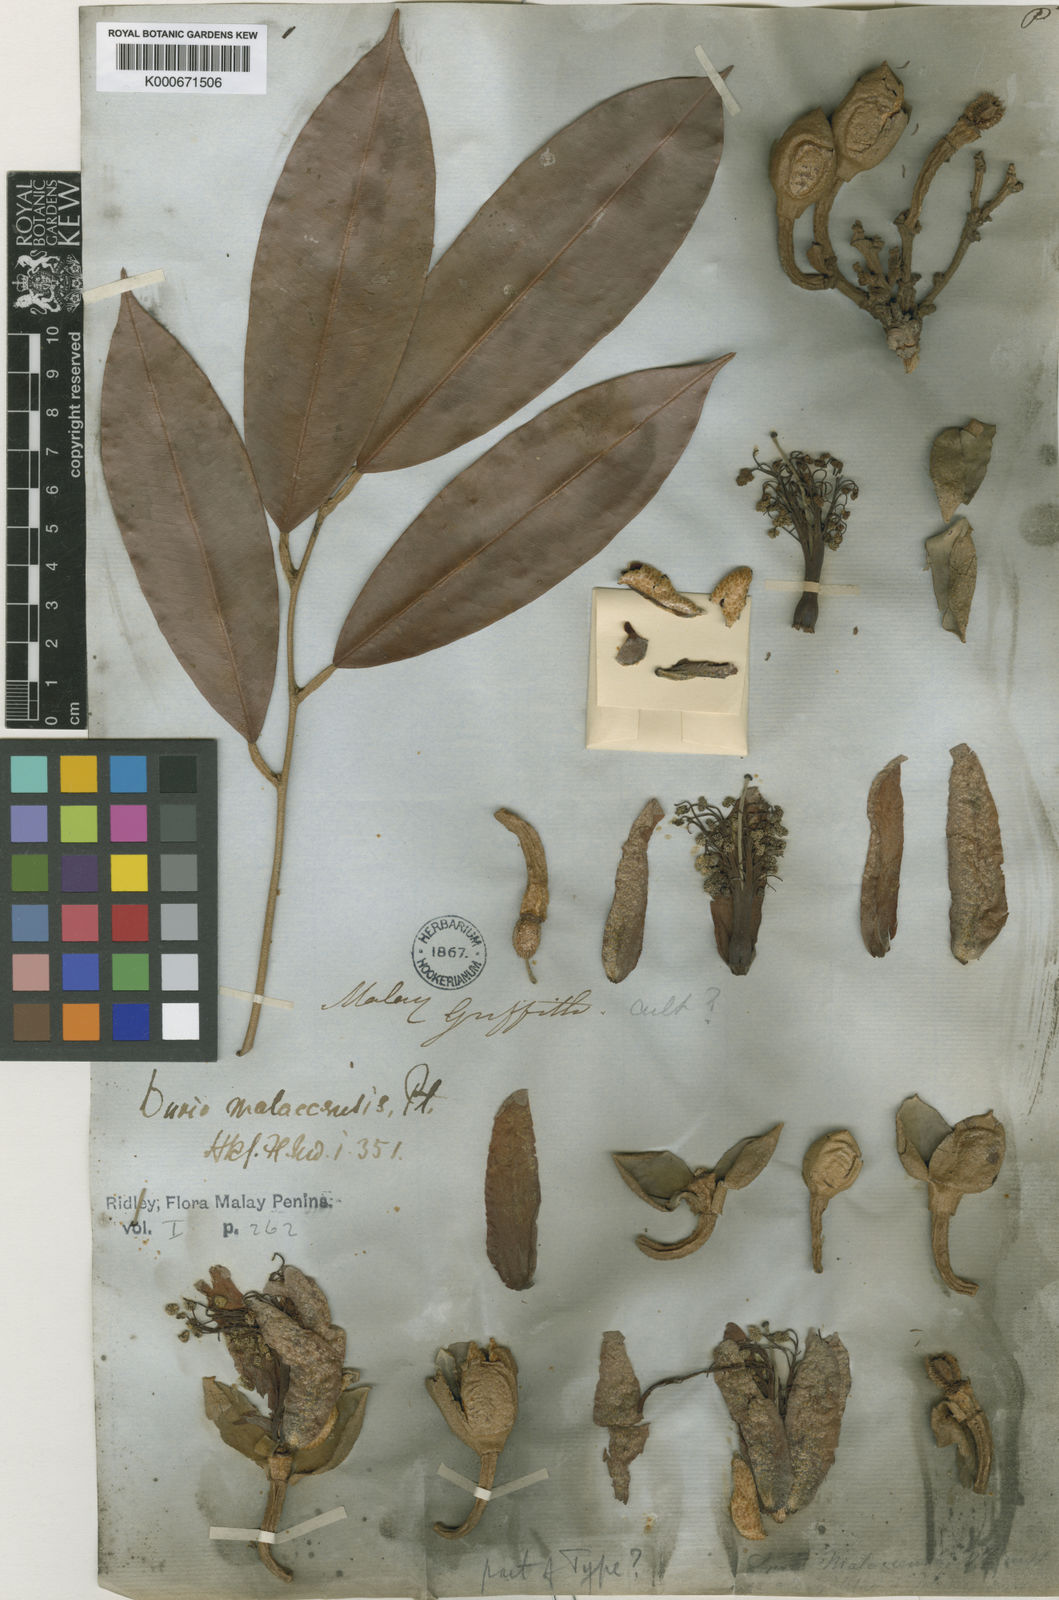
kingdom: Plantae
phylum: Tracheophyta
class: Magnoliopsida
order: Malvales
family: Malvaceae
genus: Durio
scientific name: Durio malaccensis
